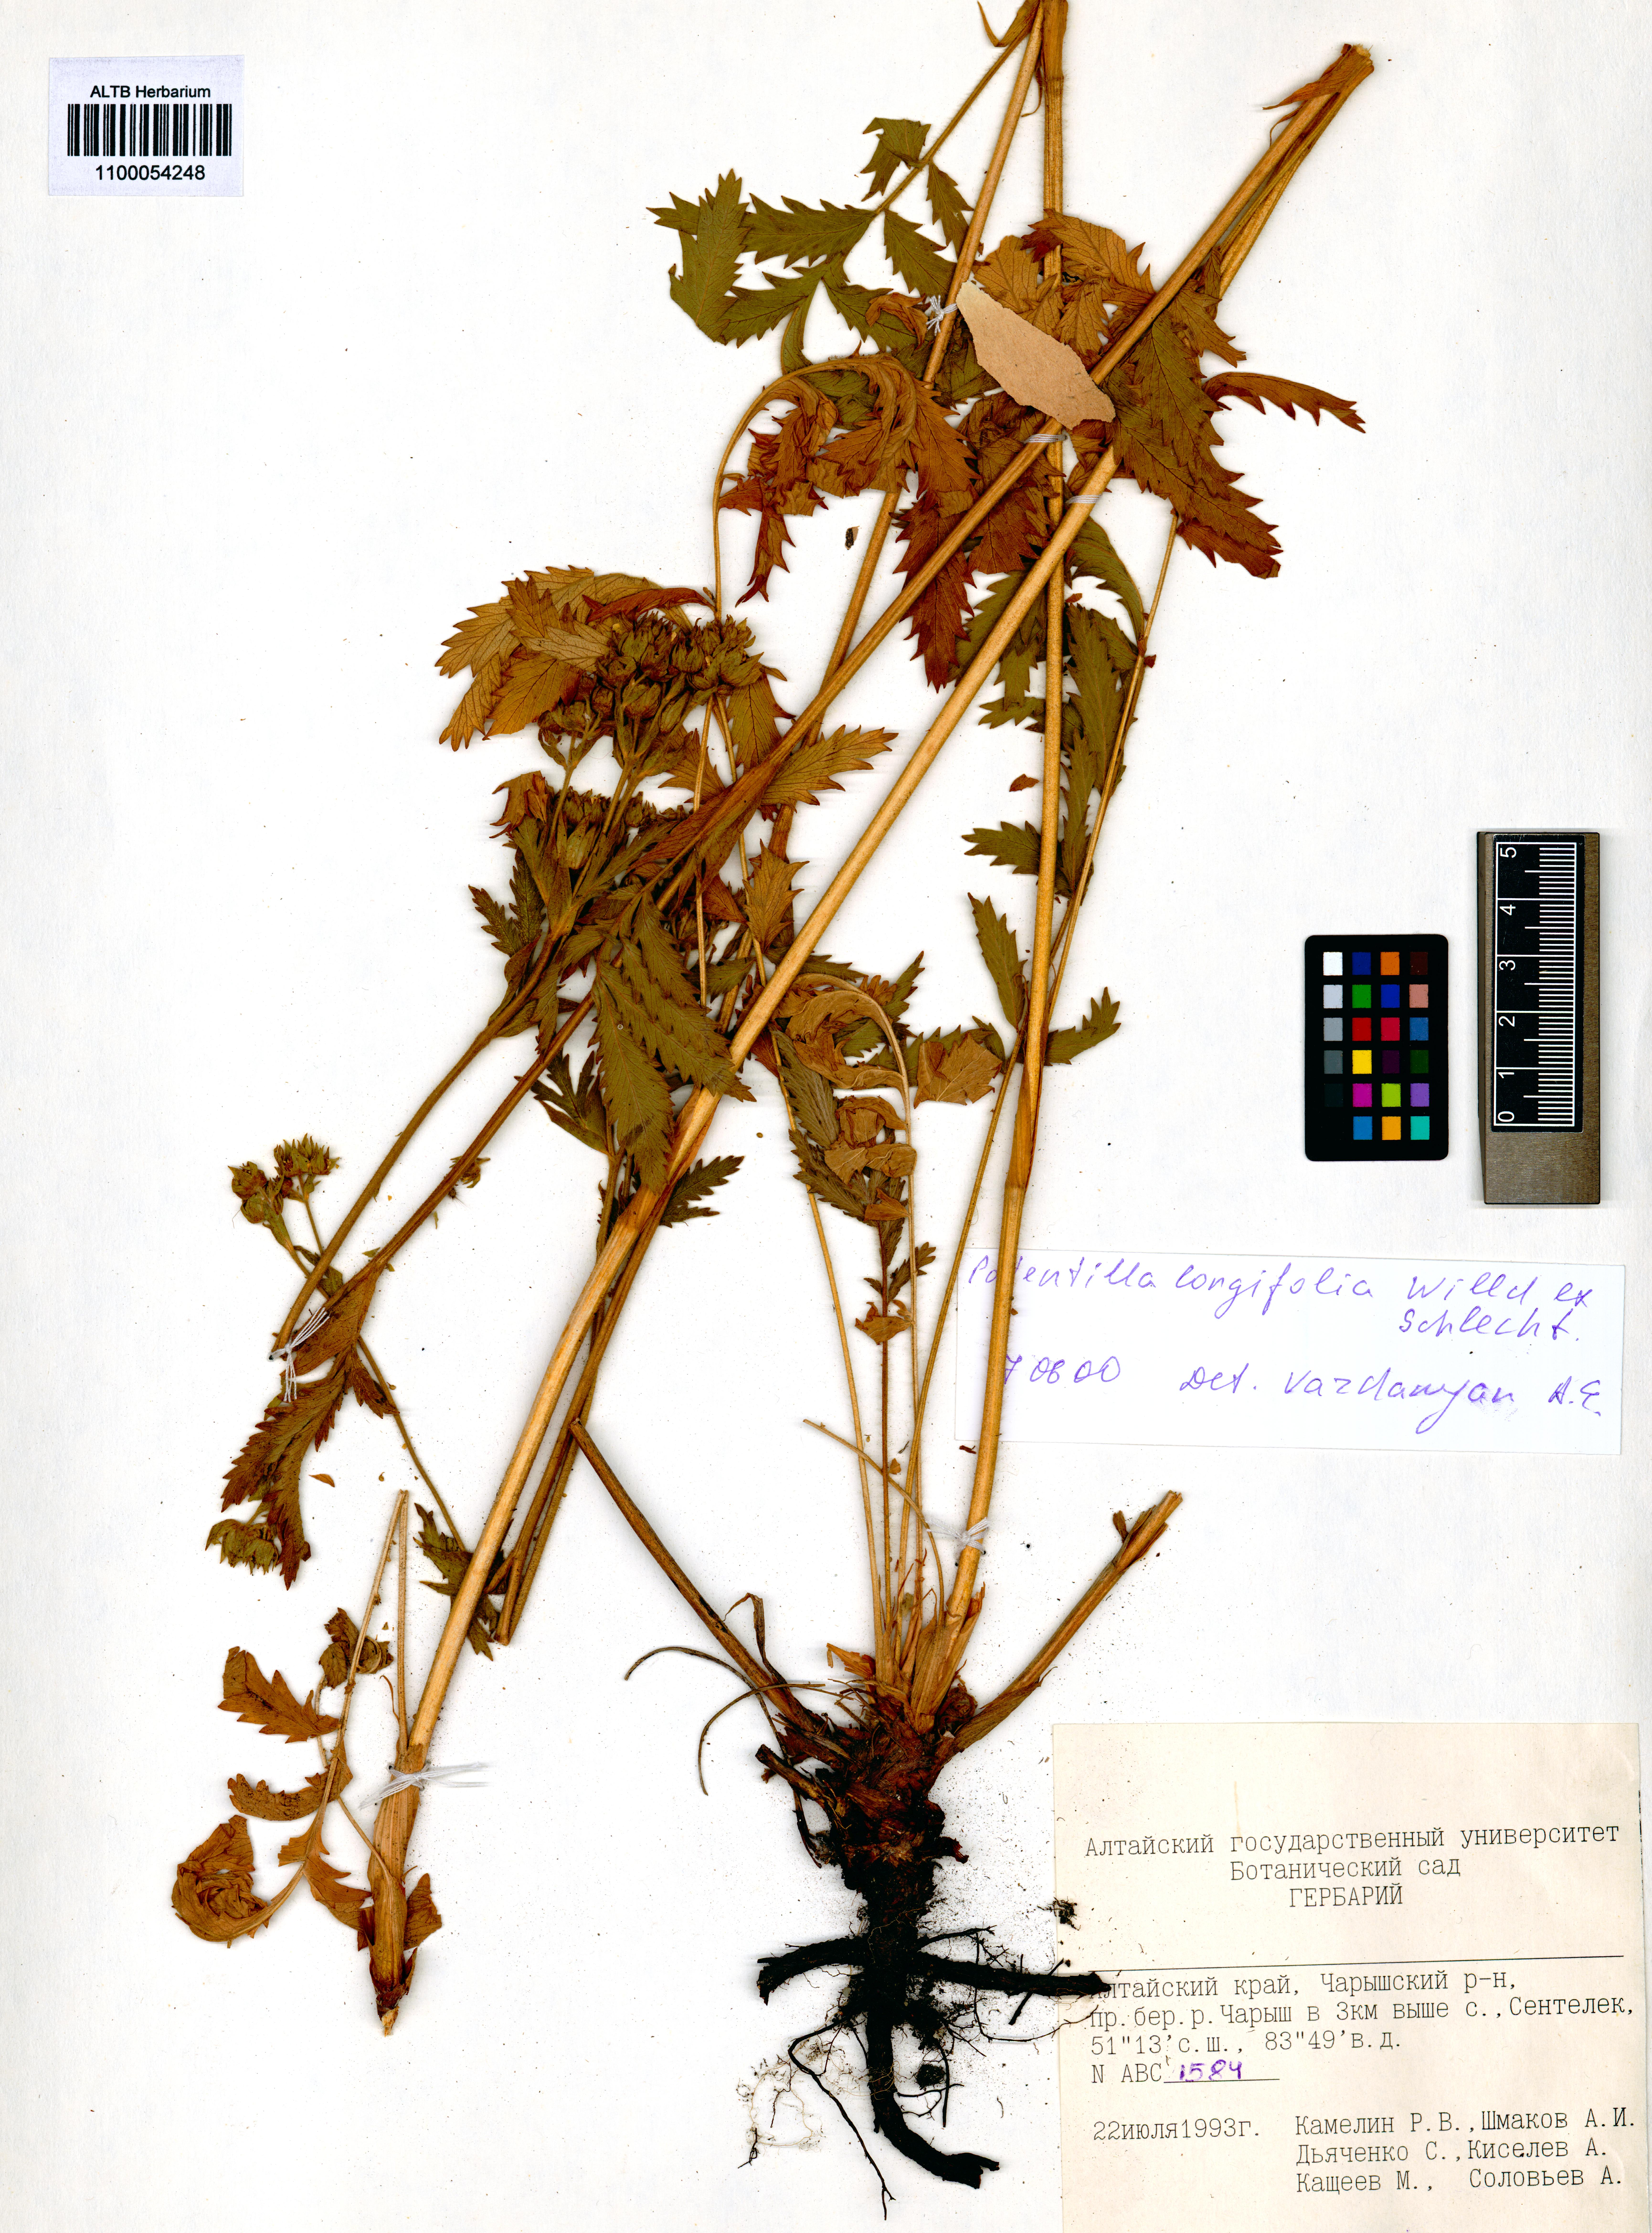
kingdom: Plantae
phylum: Tracheophyta
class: Magnoliopsida
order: Rosales
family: Rosaceae
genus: Potentilla
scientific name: Potentilla longifolia
